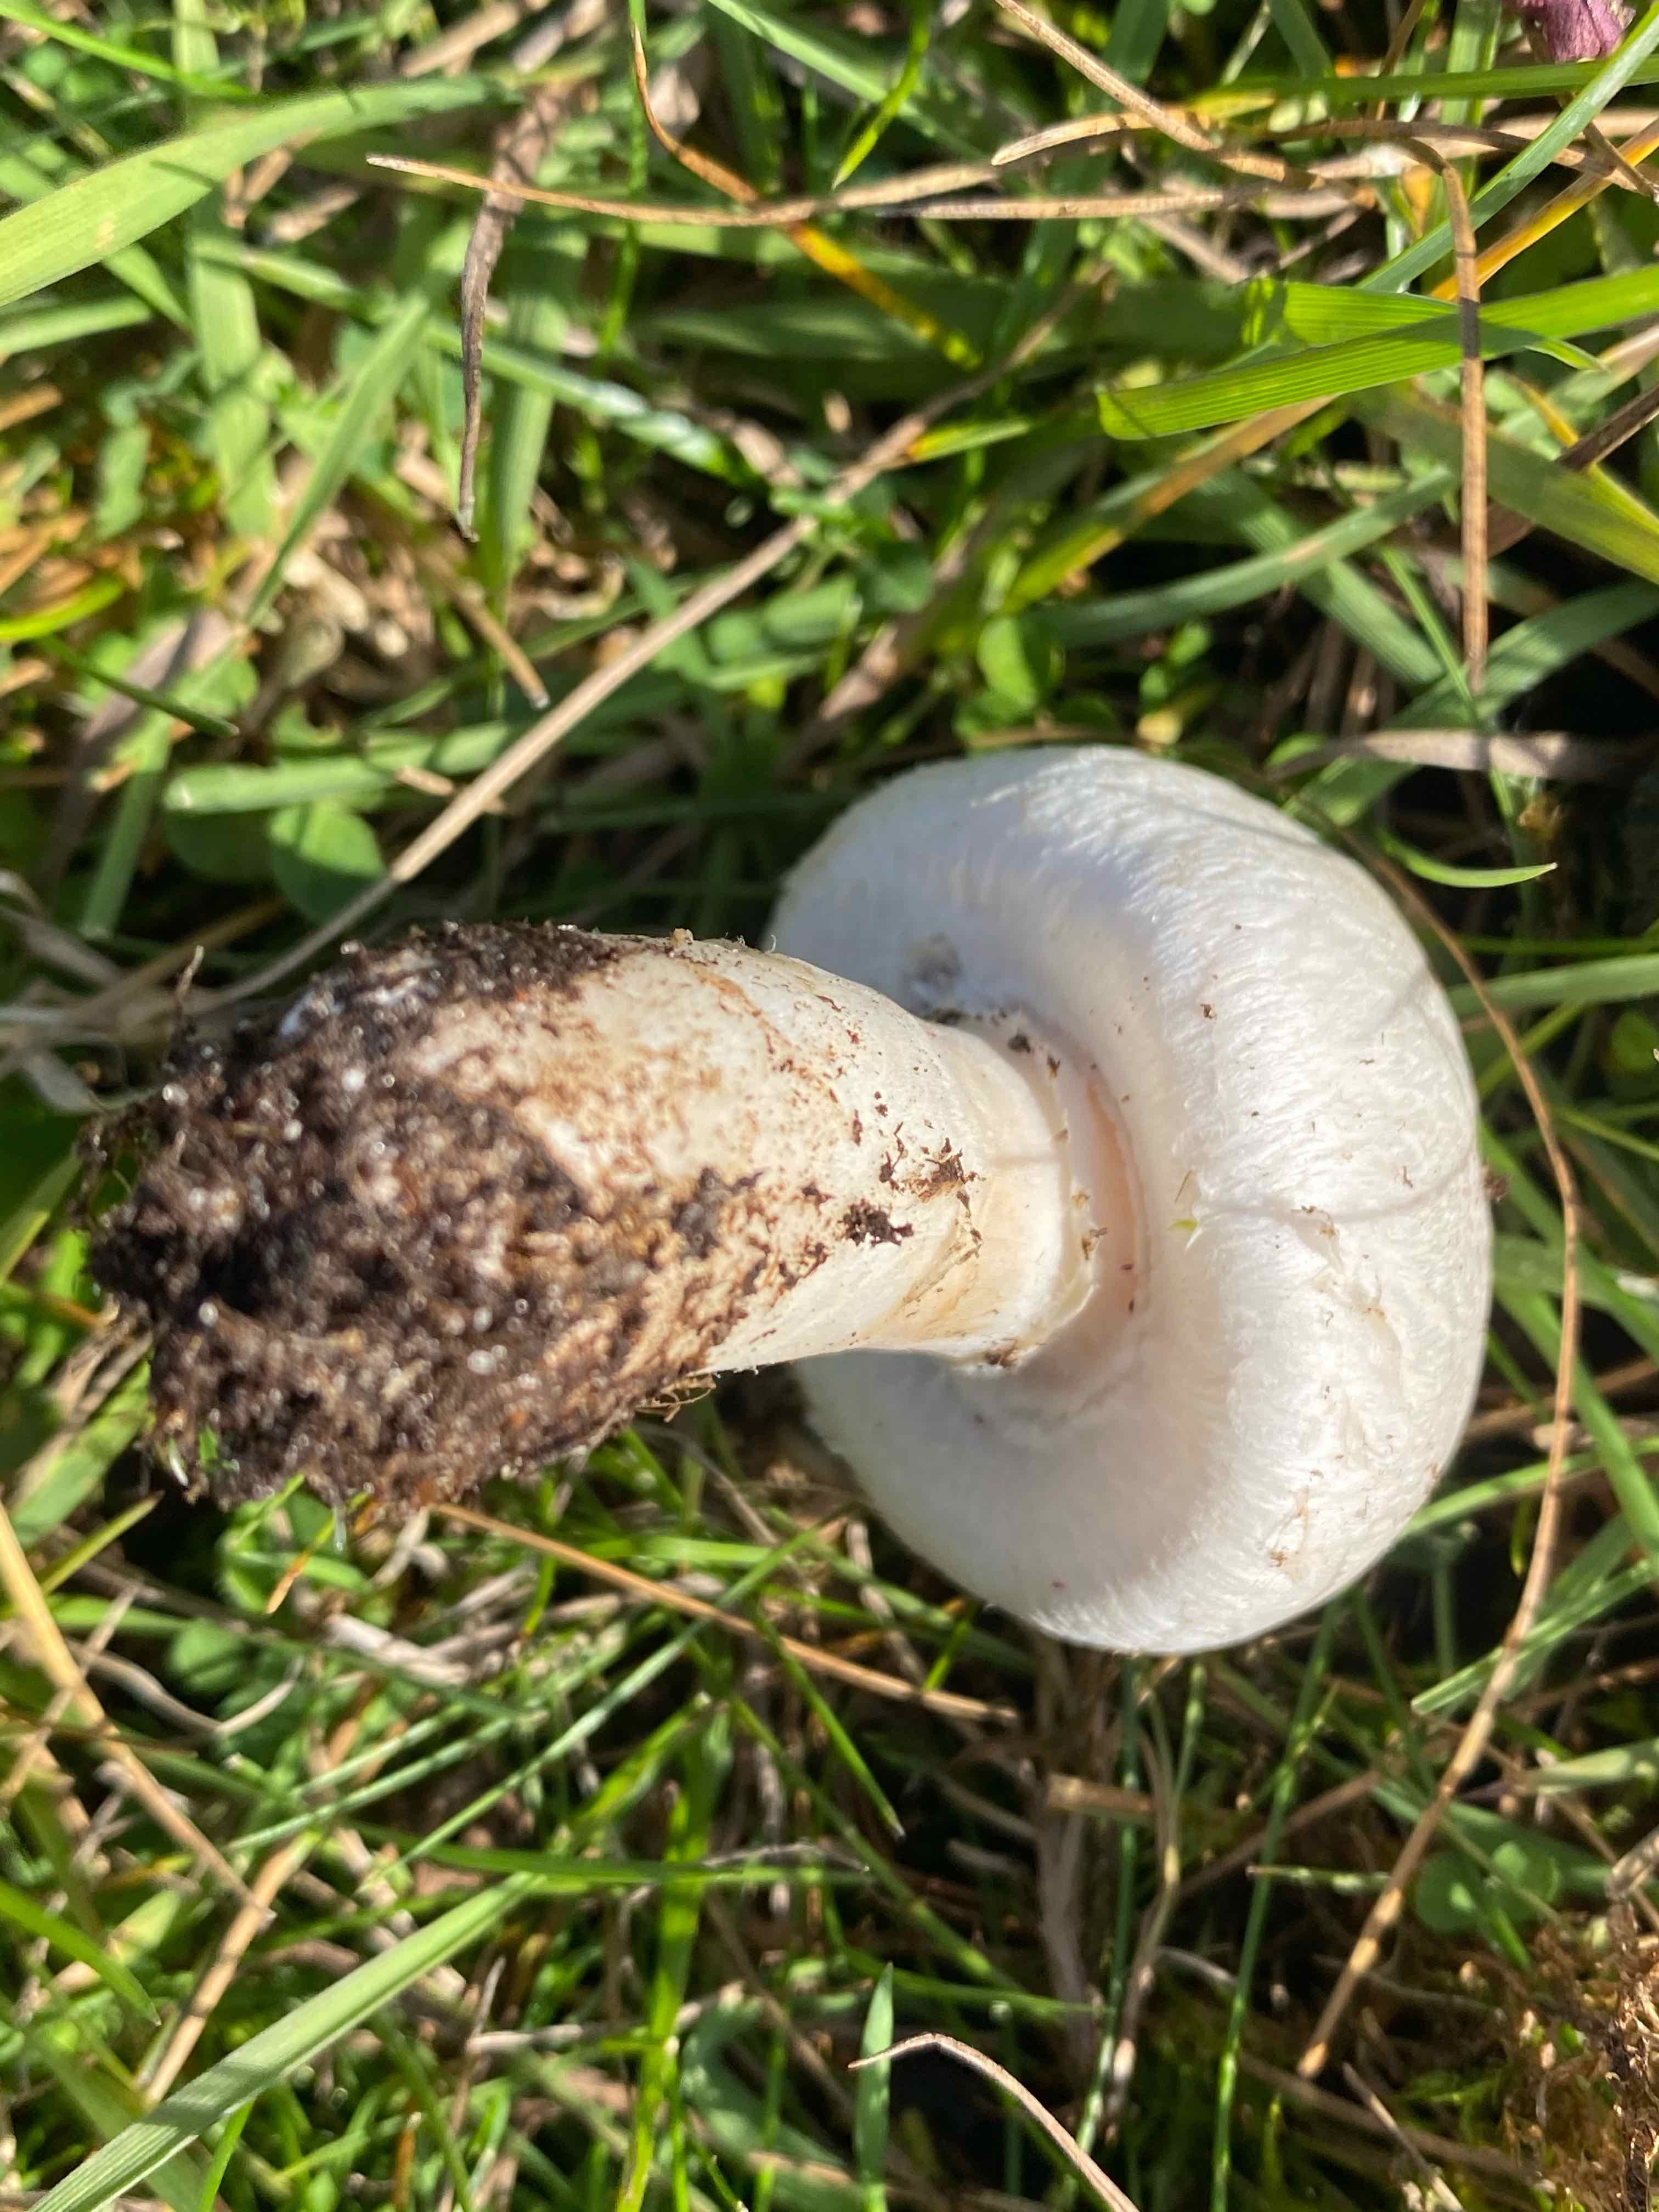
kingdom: Fungi
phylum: Basidiomycota
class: Agaricomycetes
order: Agaricales
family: Agaricaceae
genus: Agaricus
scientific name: Agaricus
